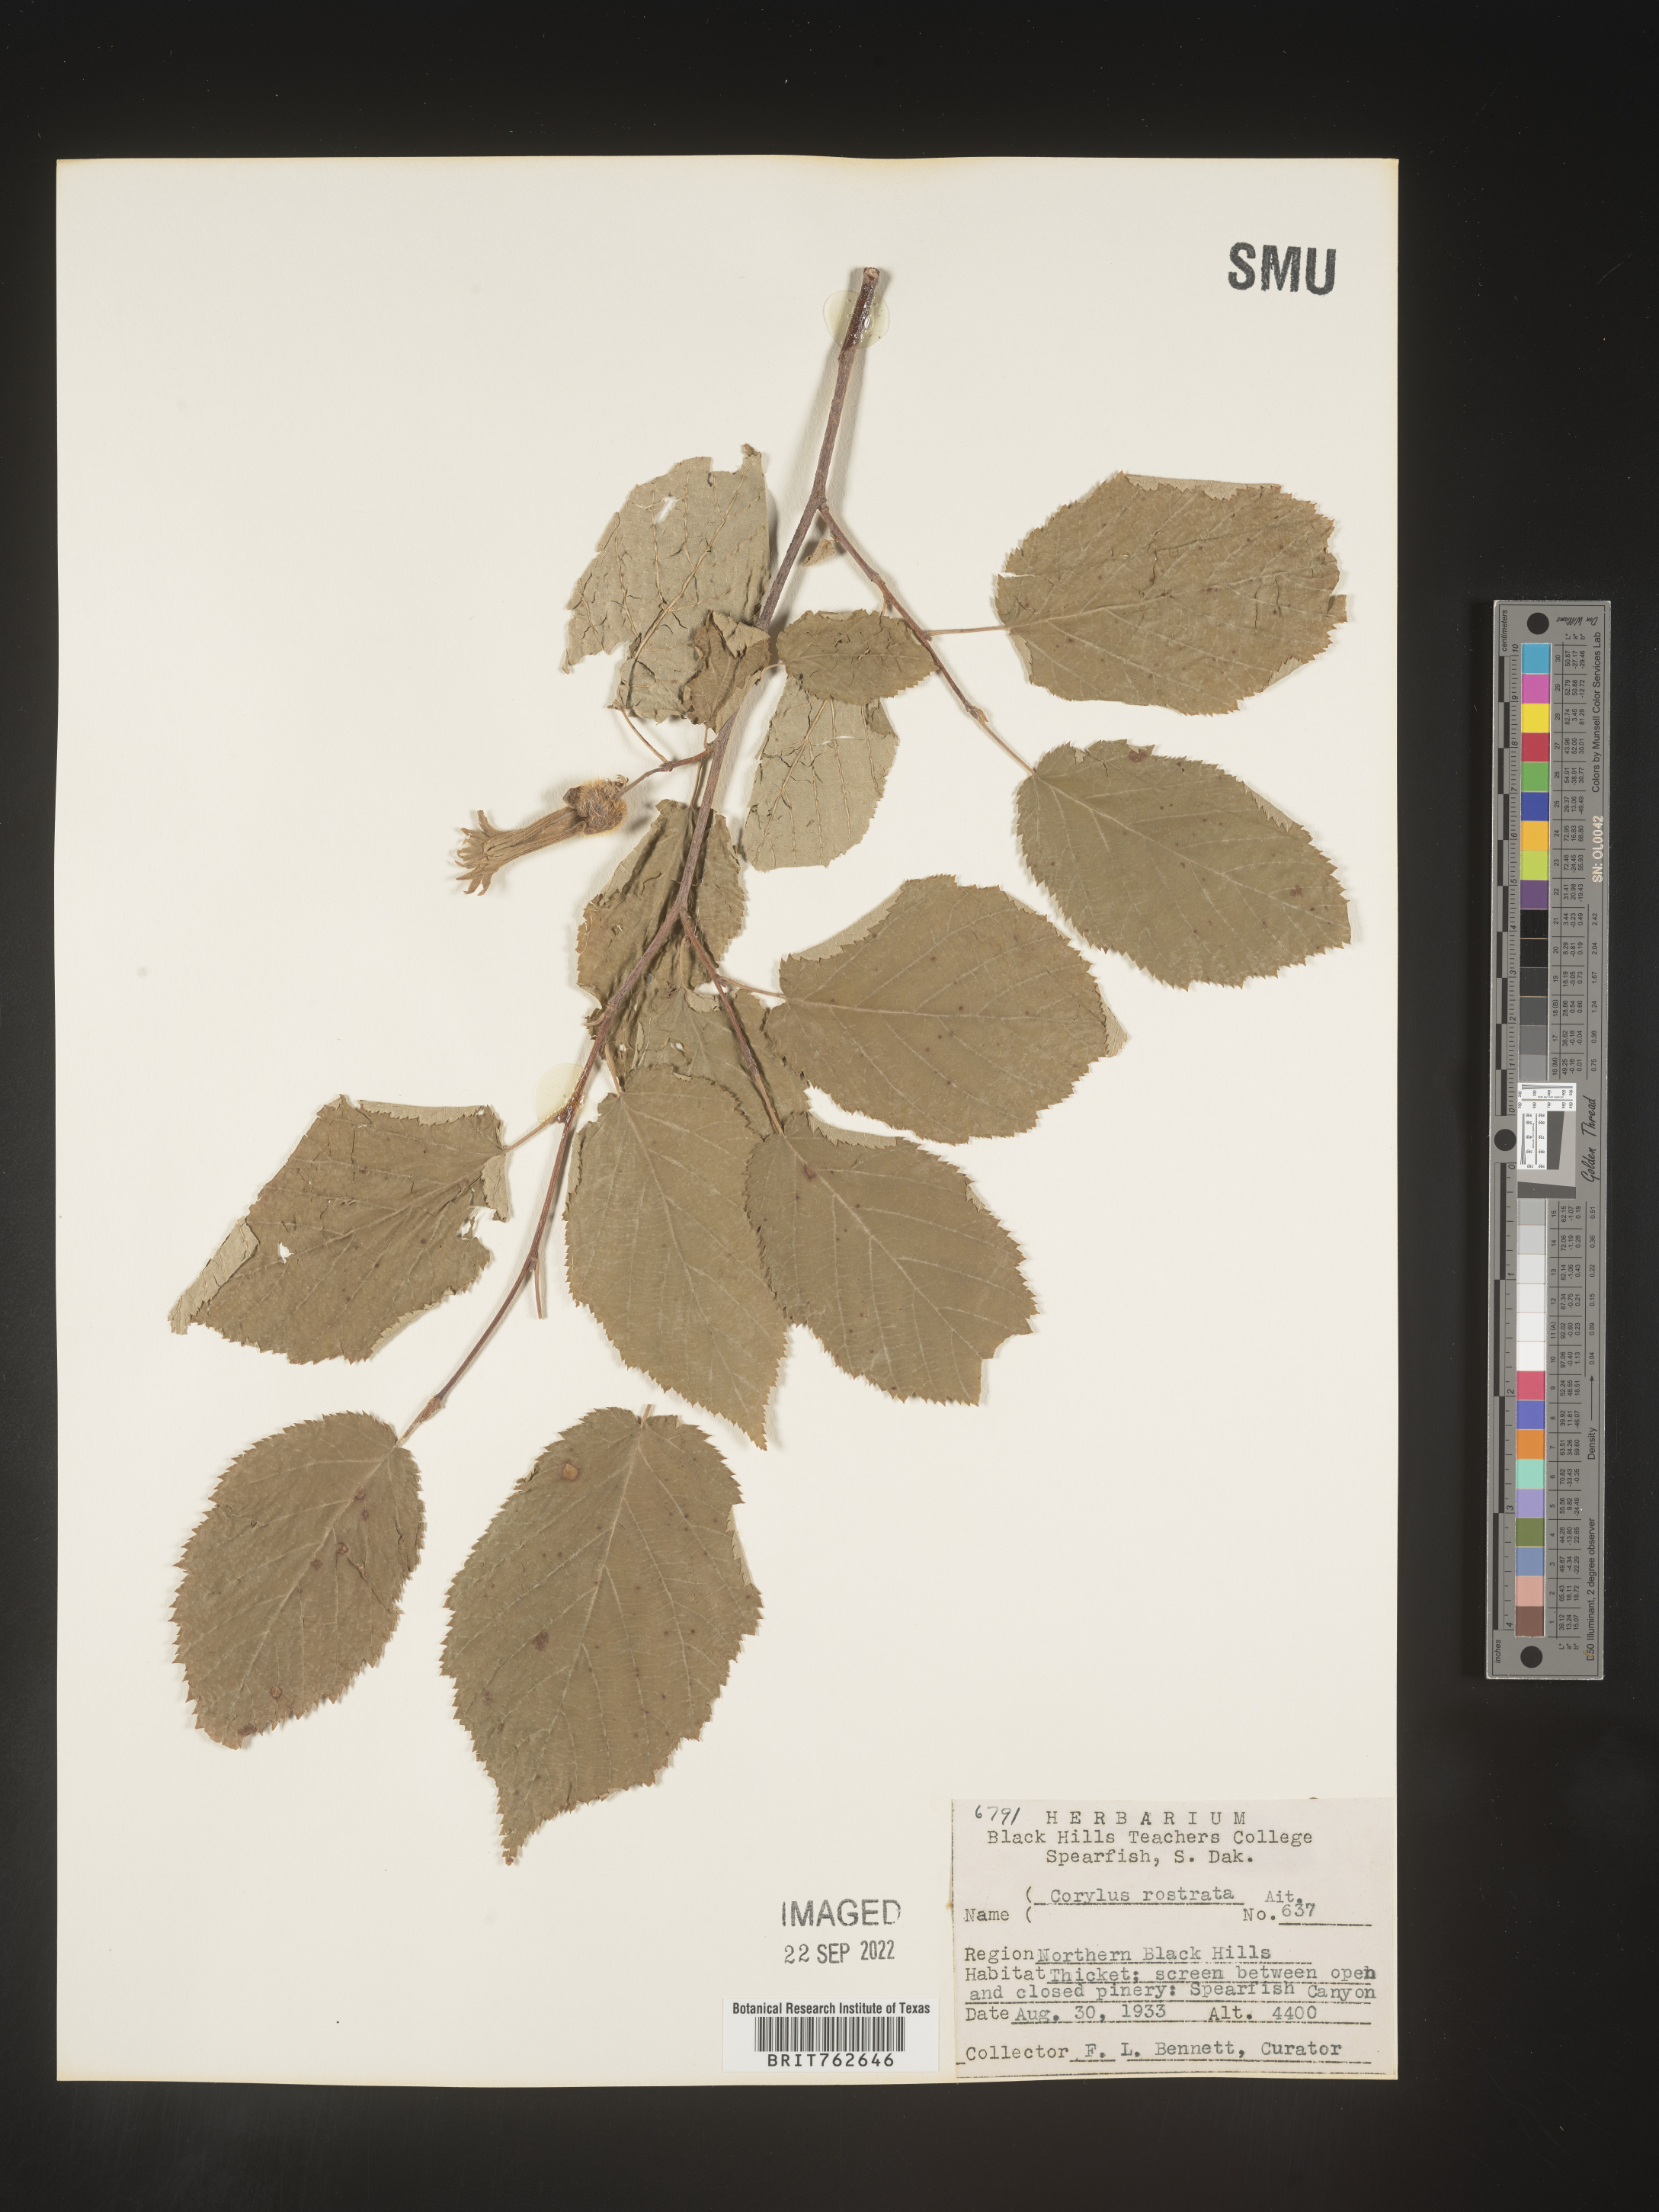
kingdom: Plantae
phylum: Tracheophyta
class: Magnoliopsida
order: Fagales
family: Betulaceae
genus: Corylus
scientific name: Corylus cornuta
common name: Beaked hazel
